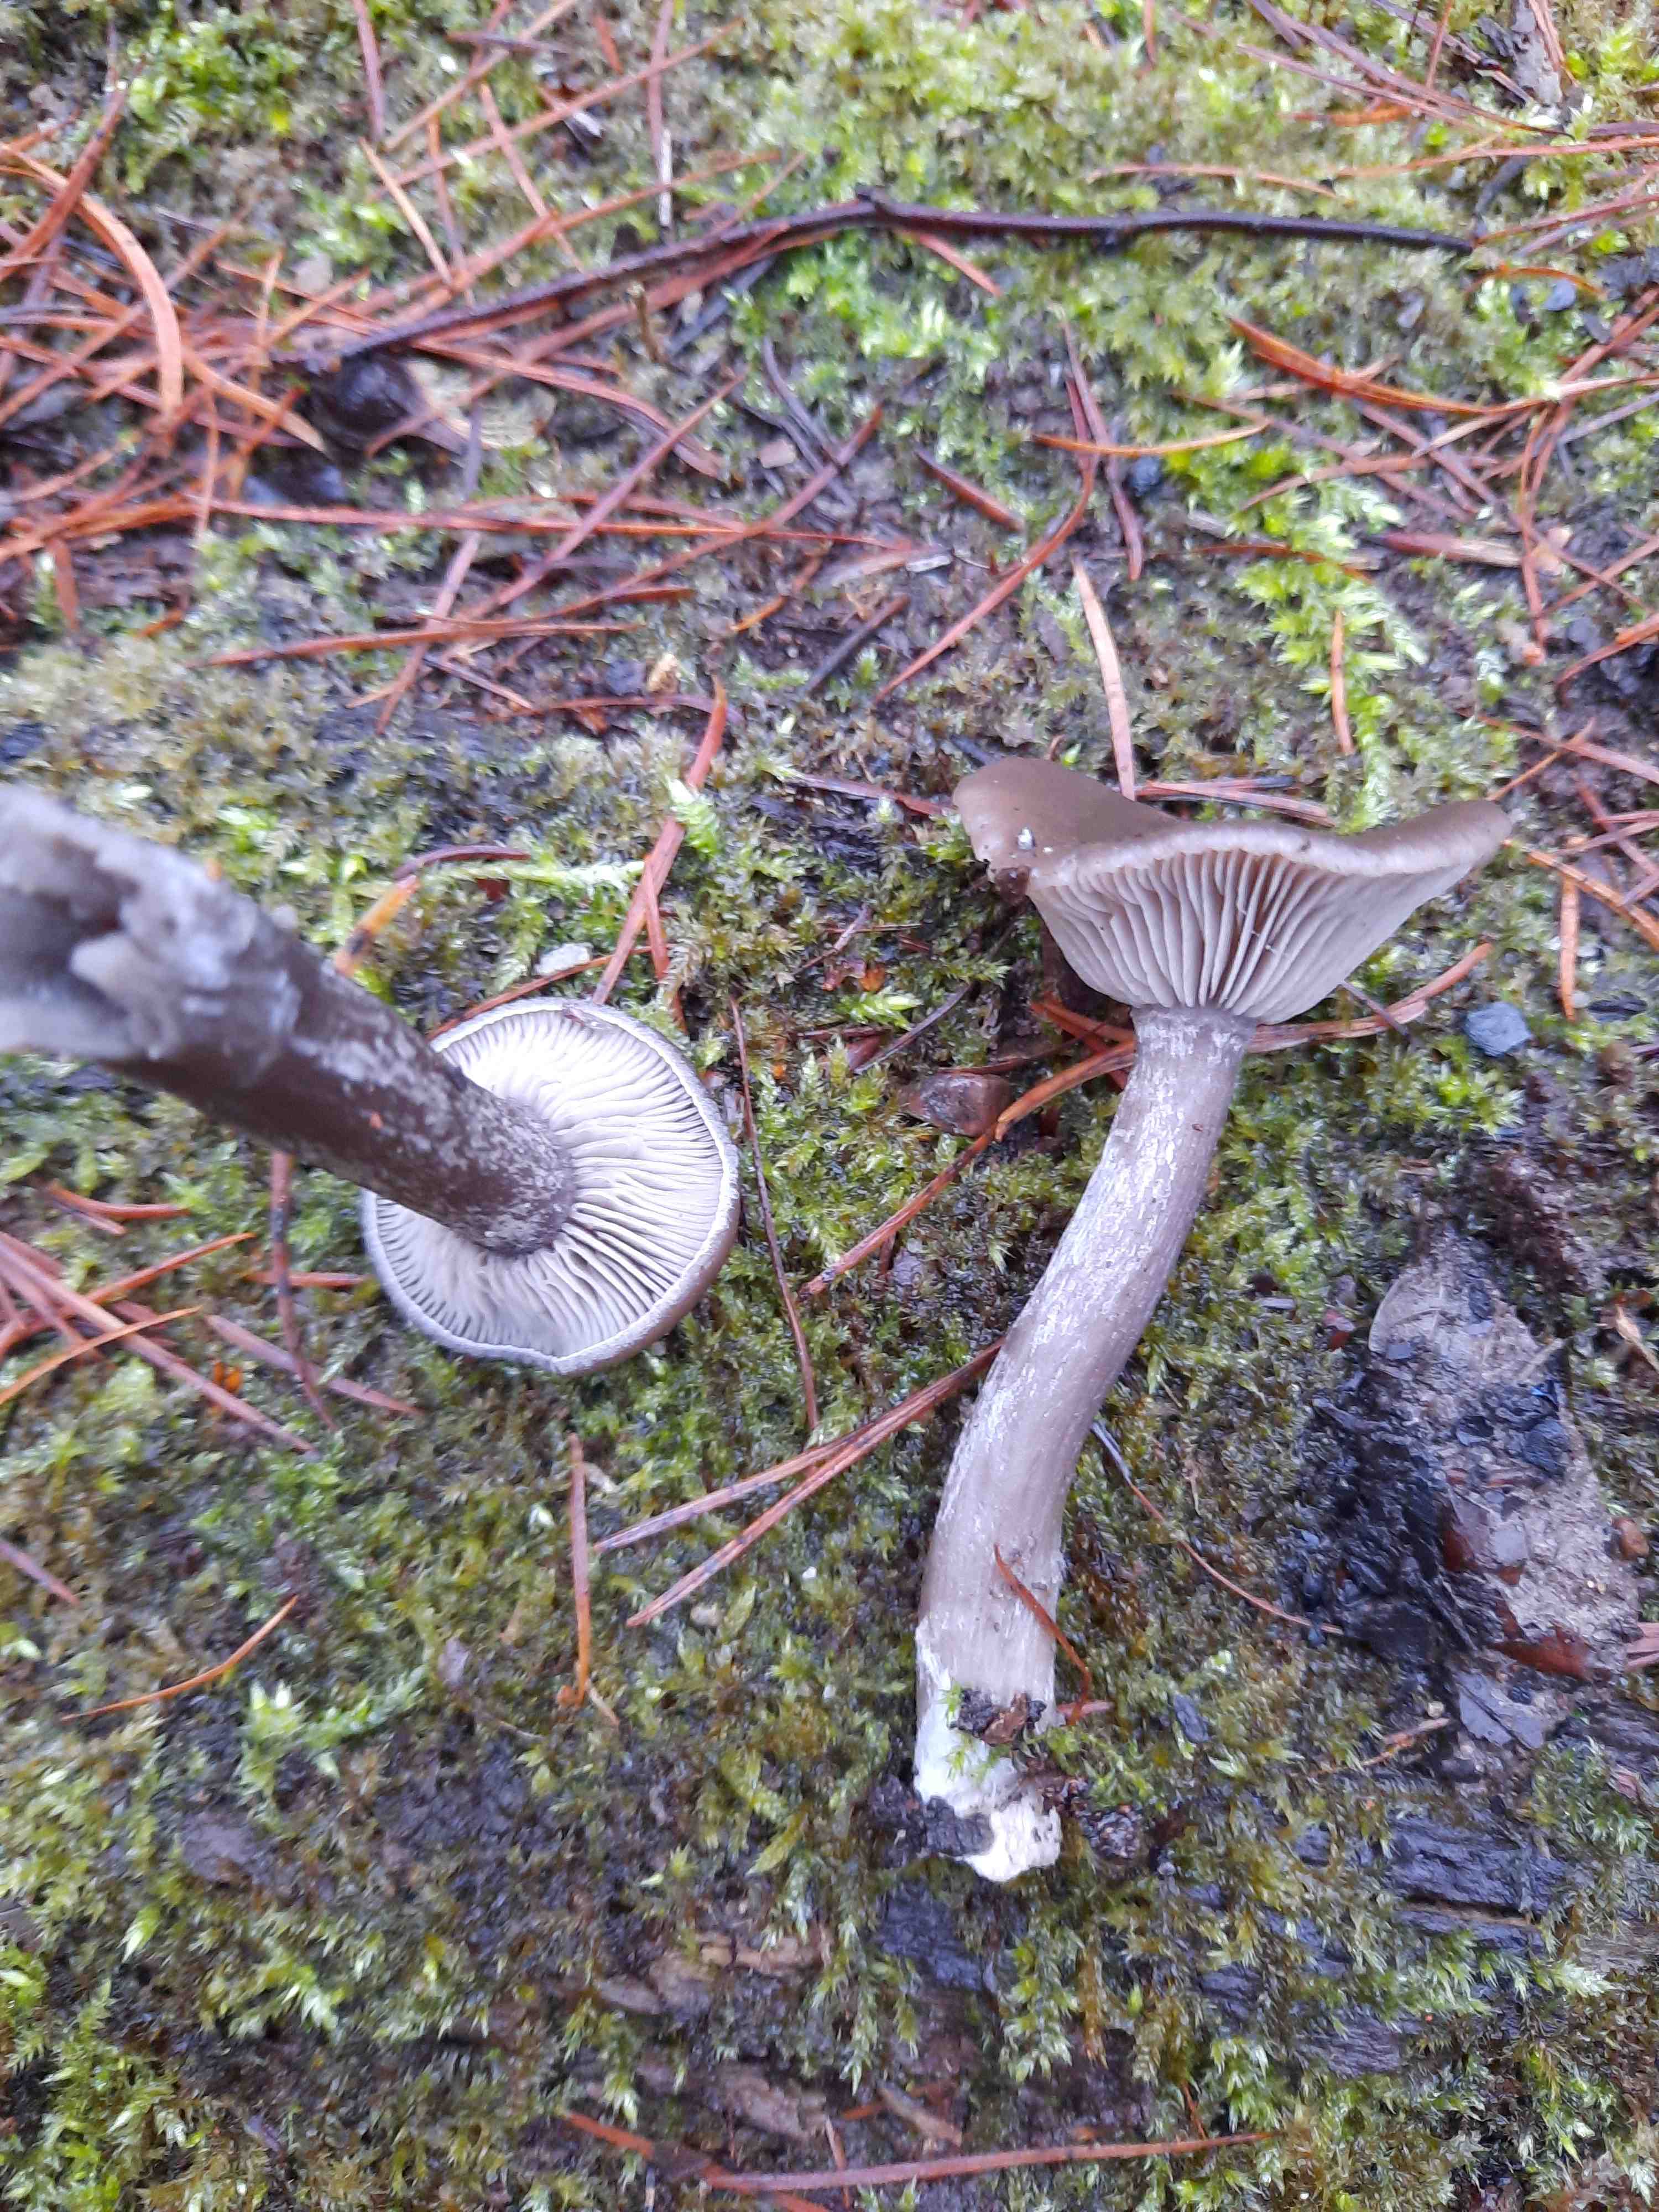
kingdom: Fungi
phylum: Basidiomycota
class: Agaricomycetes
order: Agaricales
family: Pseudoclitocybaceae
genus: Pseudoclitocybe
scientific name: Pseudoclitocybe cyathiformis
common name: almindelig bægertragthat
